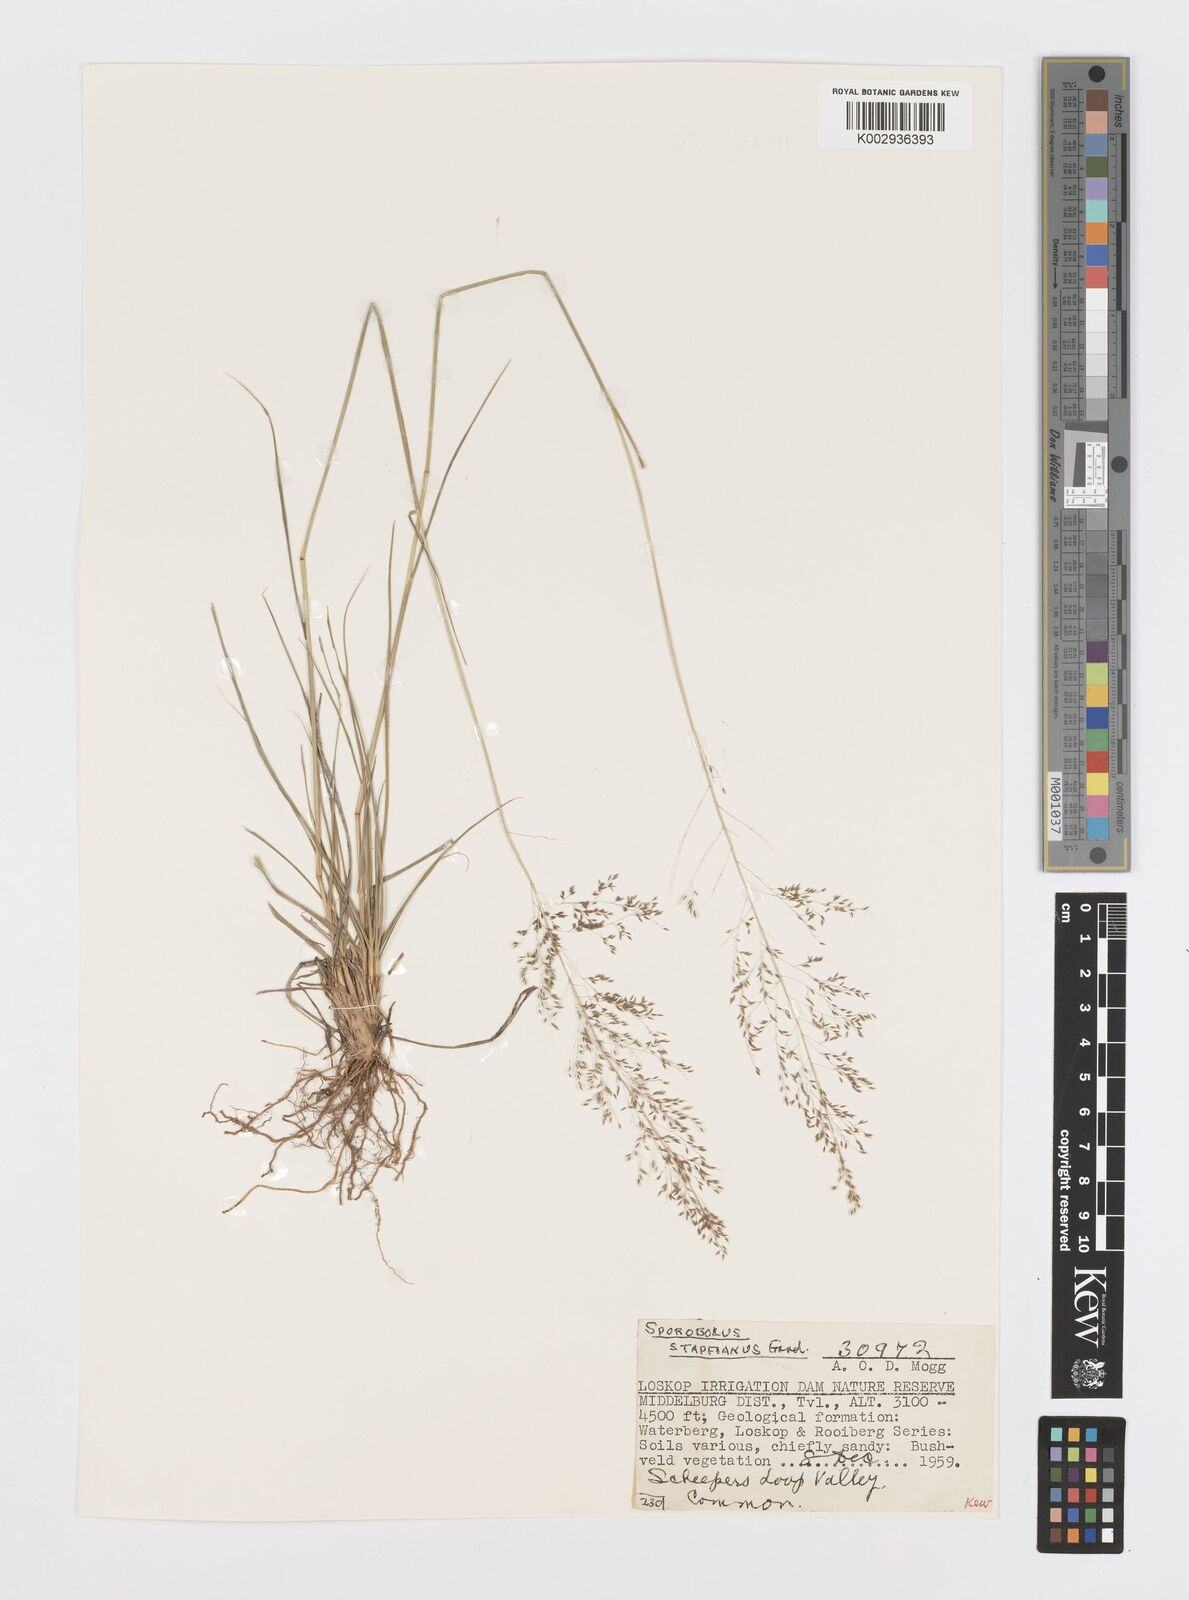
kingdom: Plantae
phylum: Tracheophyta
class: Liliopsida
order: Poales
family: Poaceae
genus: Sporobolus
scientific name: Sporobolus stapfianus
